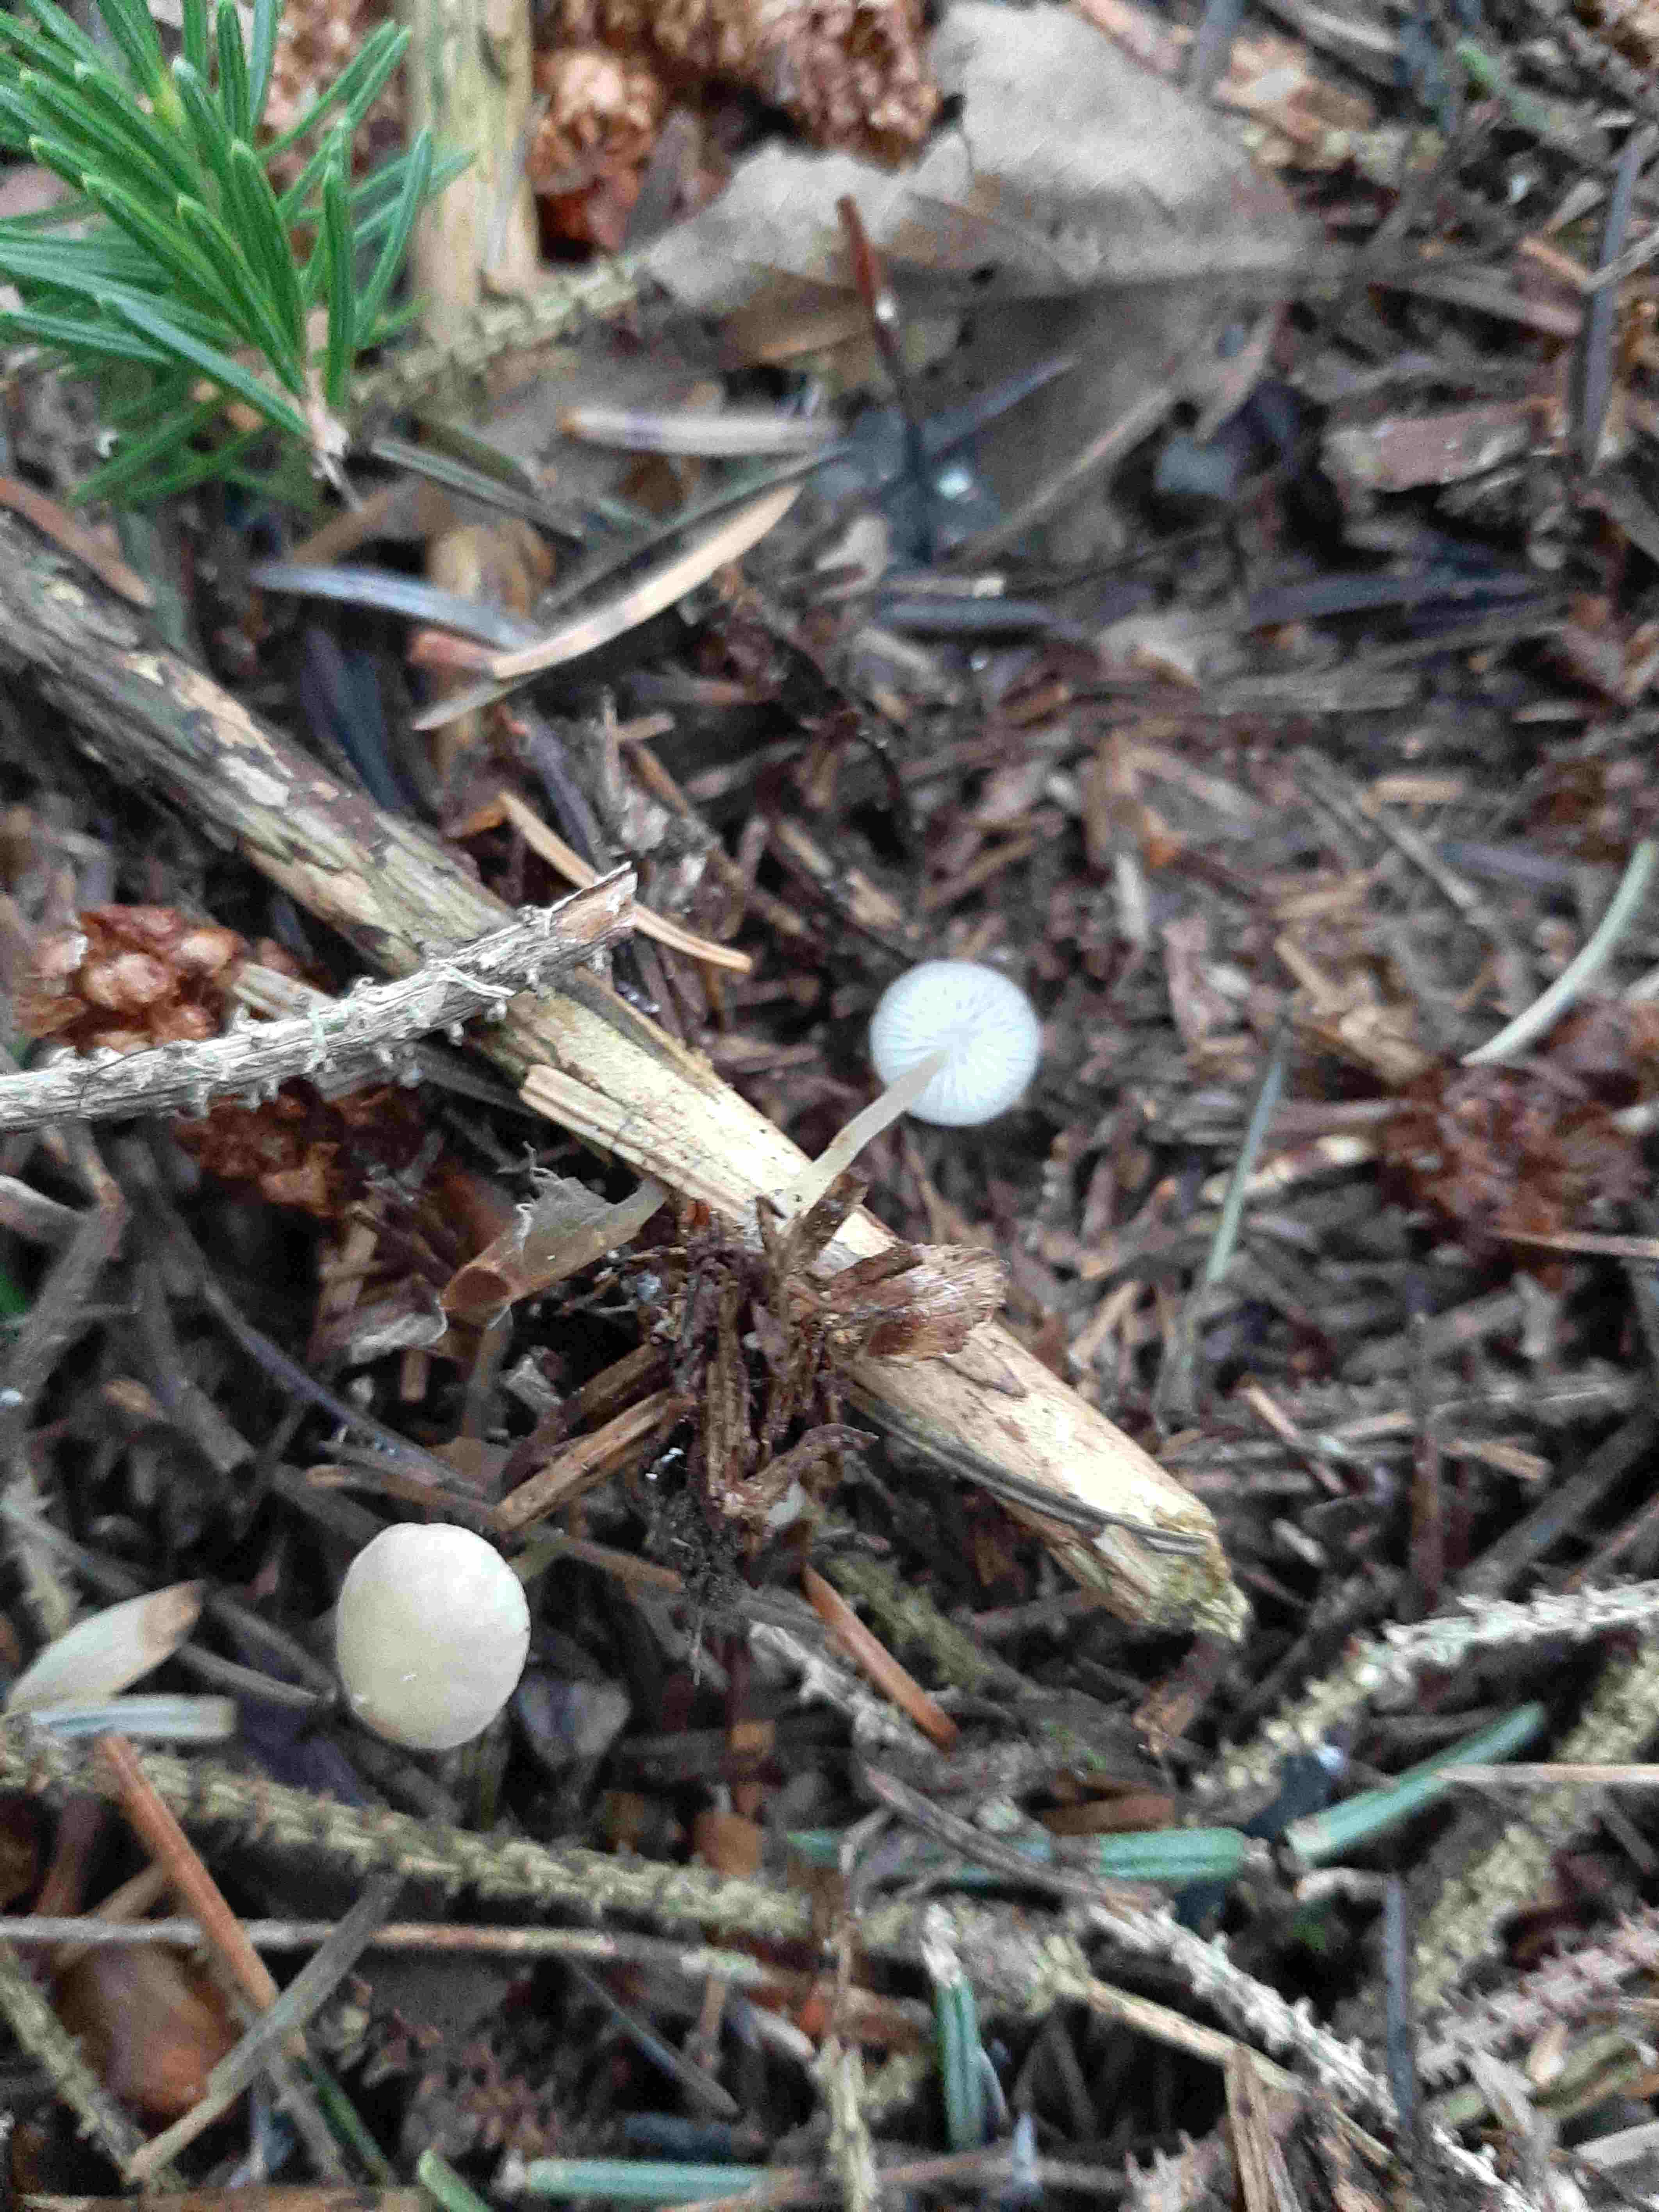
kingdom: Fungi
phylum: Basidiomycota
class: Agaricomycetes
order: Agaricales
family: Physalacriaceae
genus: Strobilurus
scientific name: Strobilurus esculentus
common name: gran-koglehat
